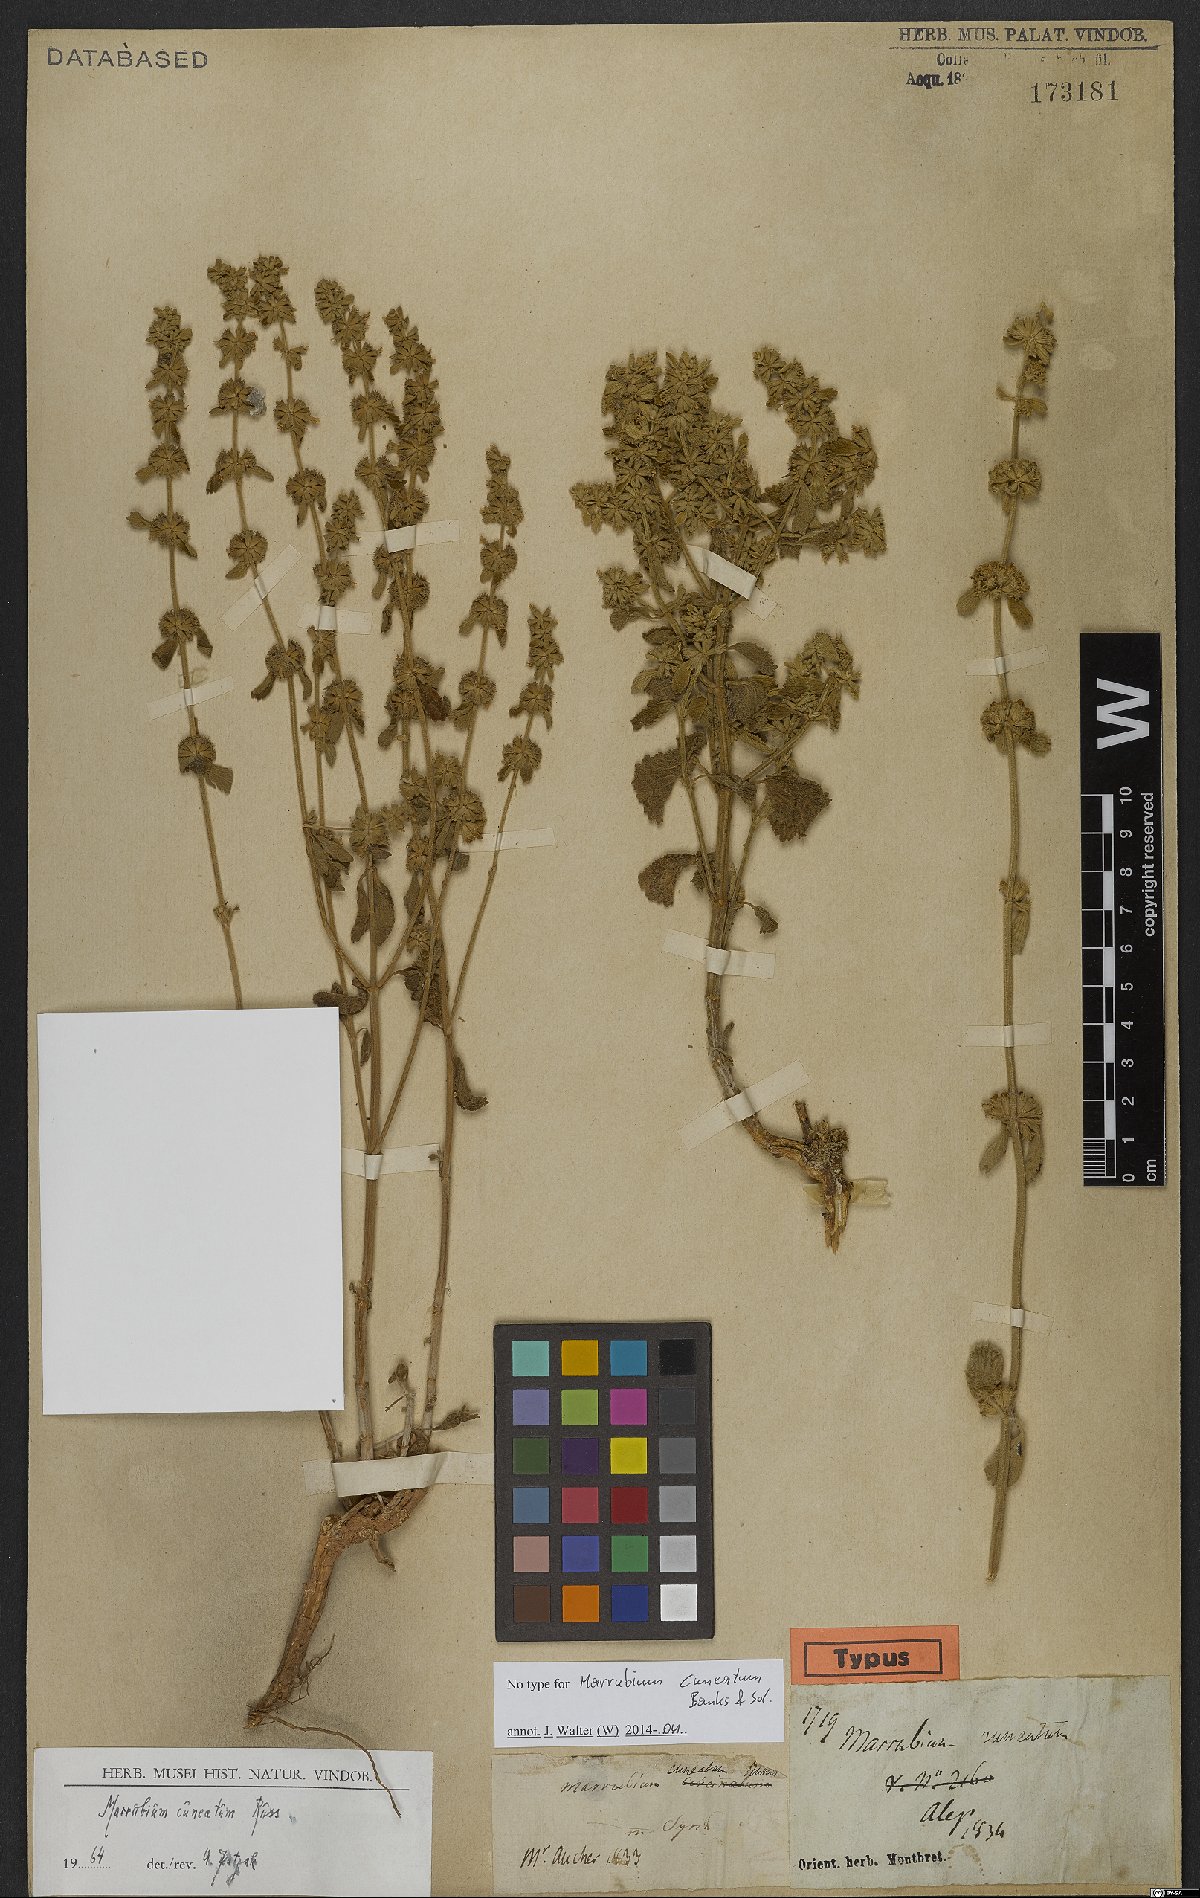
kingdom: Plantae
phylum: Tracheophyta
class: Magnoliopsida
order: Lamiales
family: Lamiaceae
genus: Marrubium
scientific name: Marrubium cuneatum
